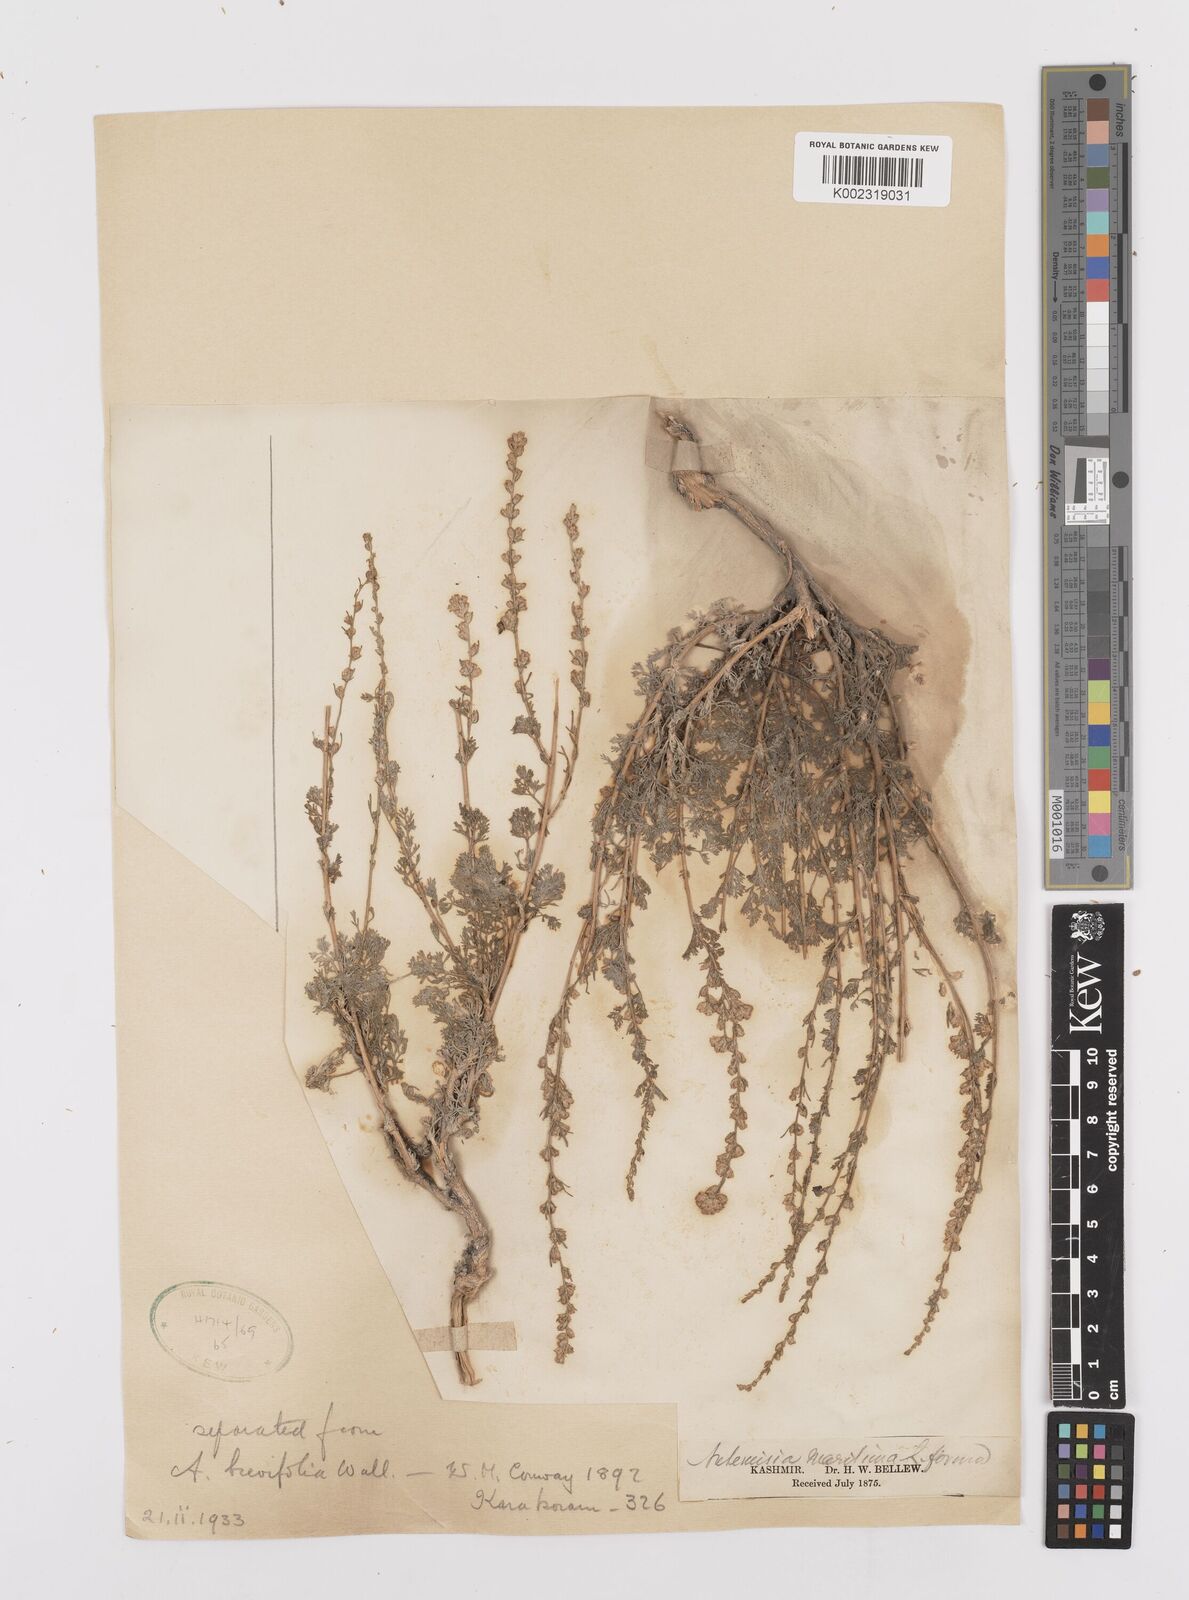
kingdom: Plantae
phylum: Tracheophyta
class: Magnoliopsida
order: Asterales
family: Asteraceae
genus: Artemisia
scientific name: Artemisia brevifolia
